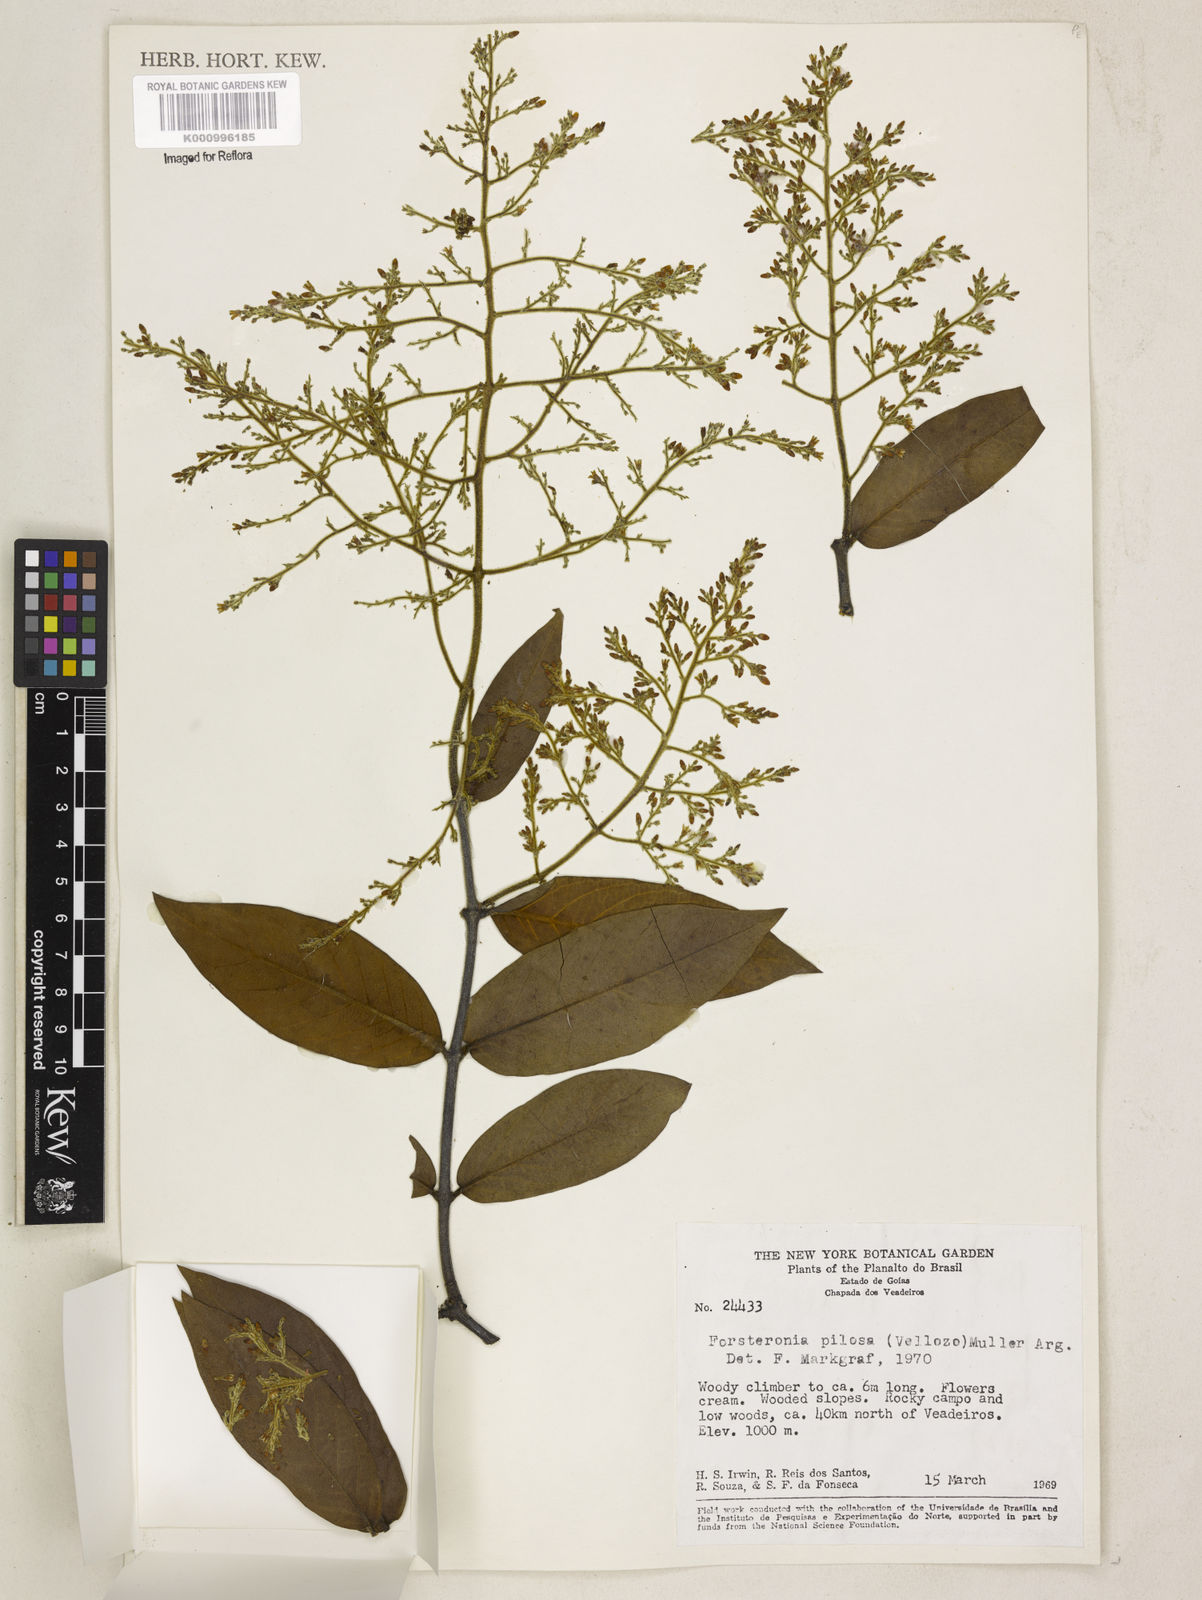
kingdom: Plantae
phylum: Tracheophyta
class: Magnoliopsida
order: Gentianales
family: Apocynaceae
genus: Forsteronia
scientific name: Forsteronia
